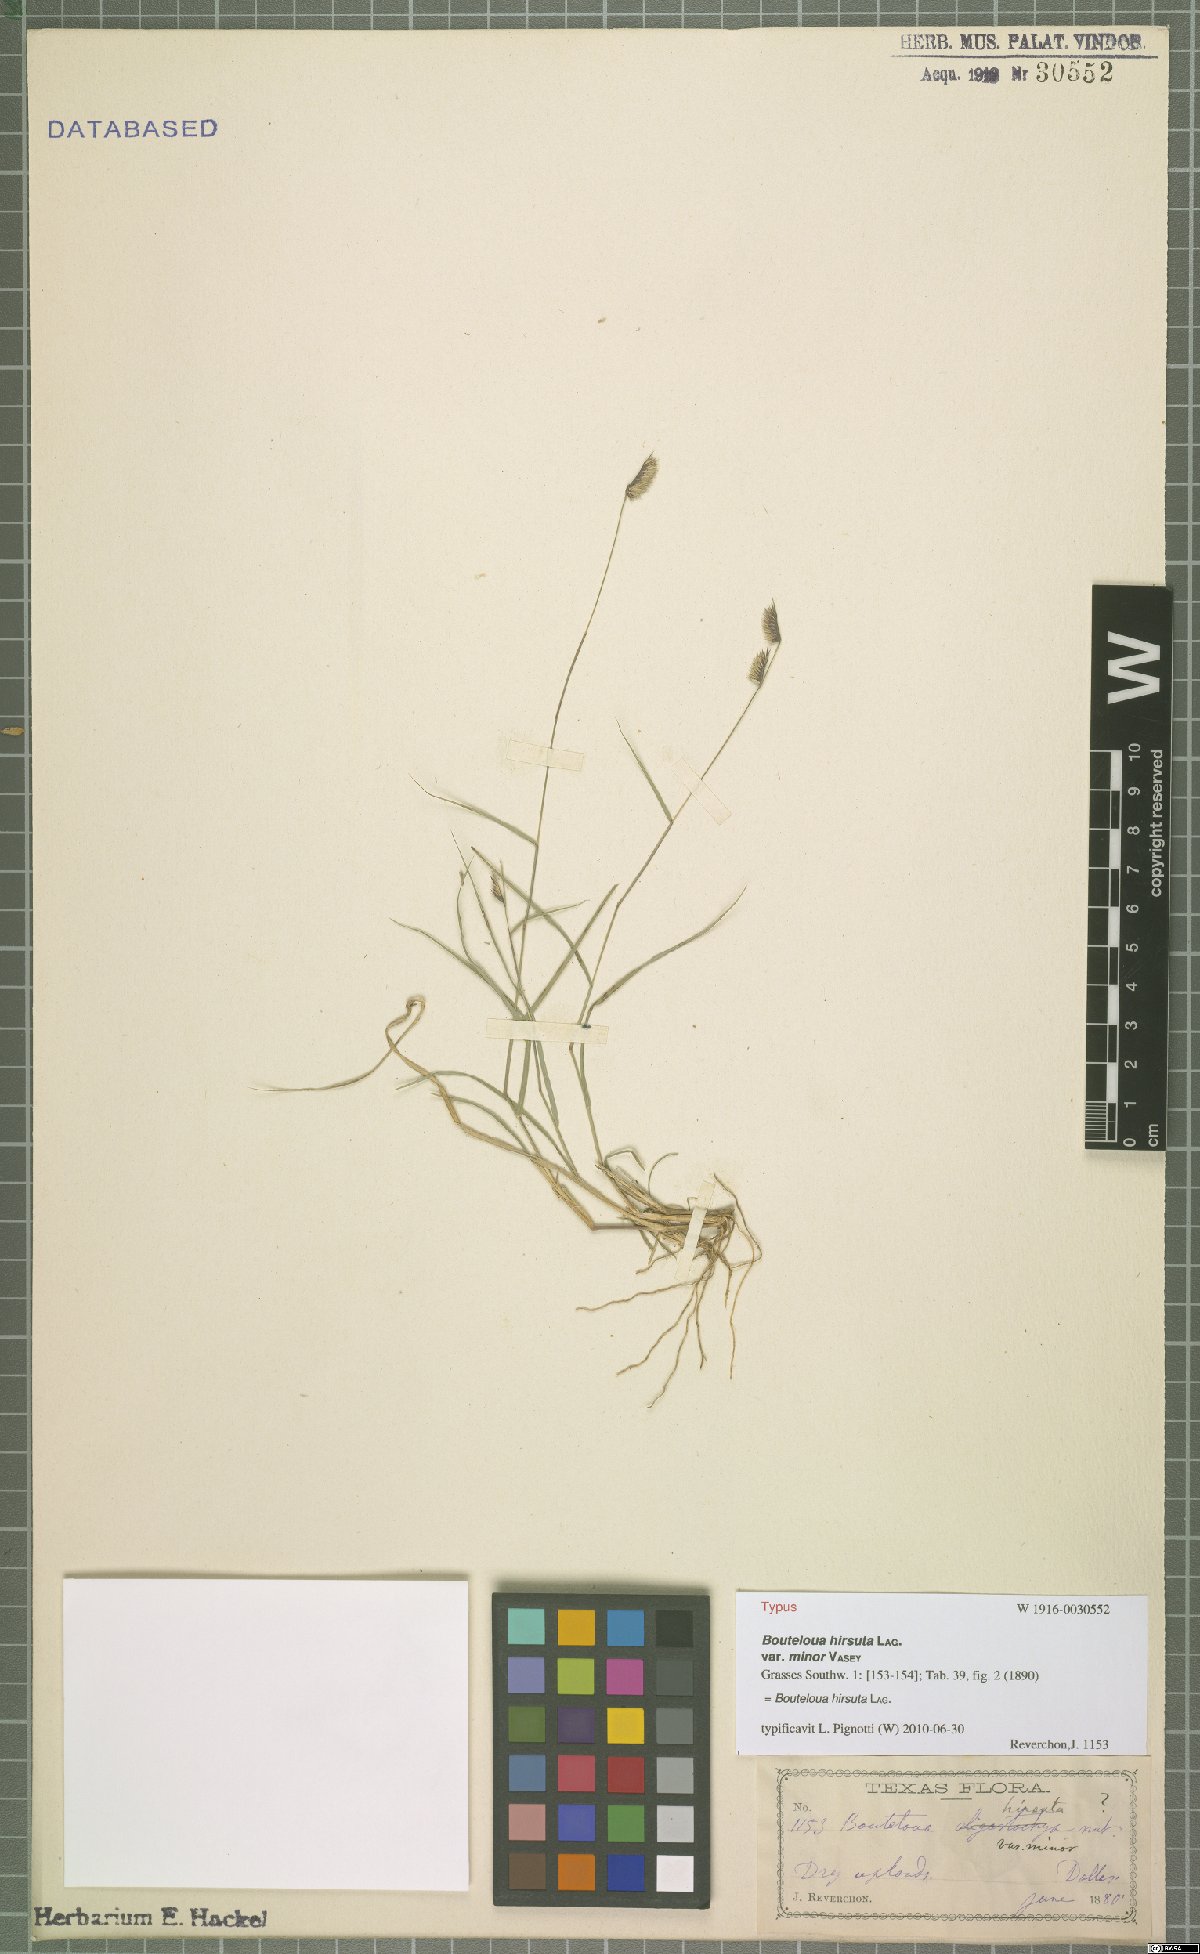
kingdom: Plantae
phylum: Tracheophyta
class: Liliopsida
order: Poales
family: Poaceae
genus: Bouteloua
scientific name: Bouteloua hirsuta
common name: Hairy grama
